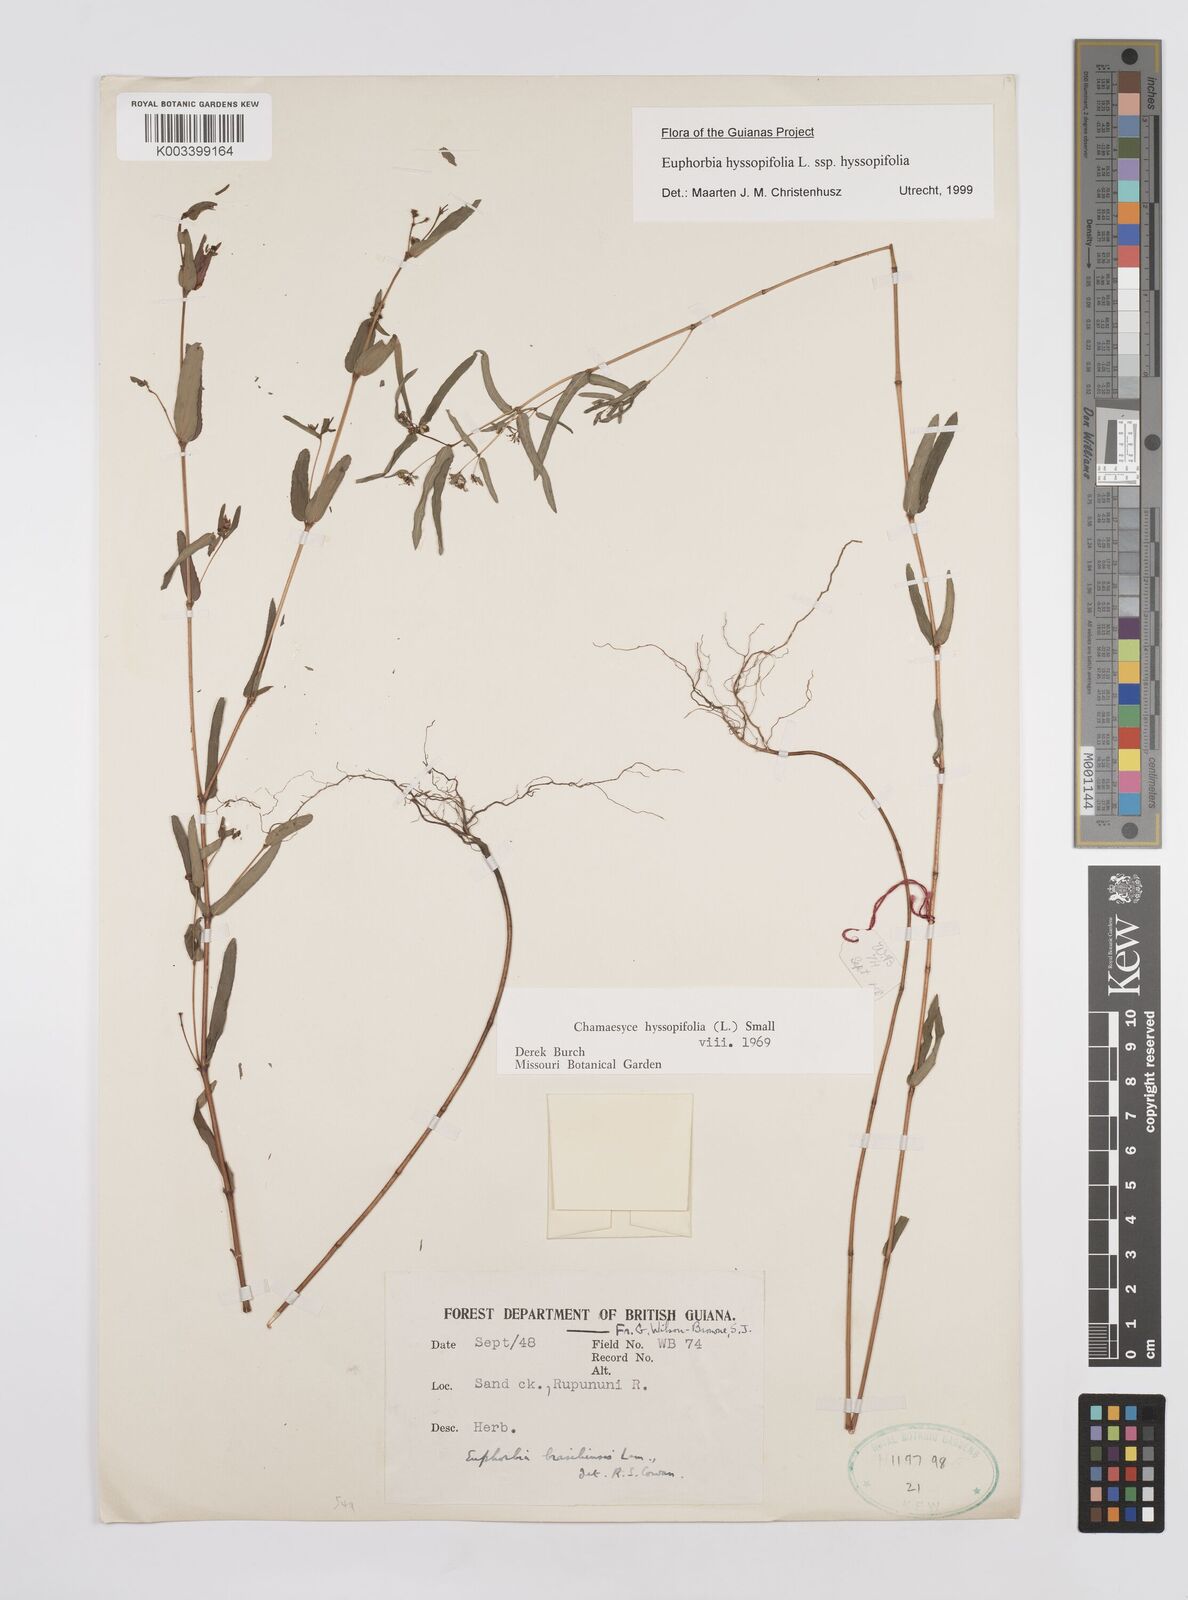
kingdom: Plantae
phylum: Tracheophyta
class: Magnoliopsida
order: Malpighiales
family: Euphorbiaceae
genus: Euphorbia
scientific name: Euphorbia hyssopifolia
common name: Hyssopleaf sandmat
